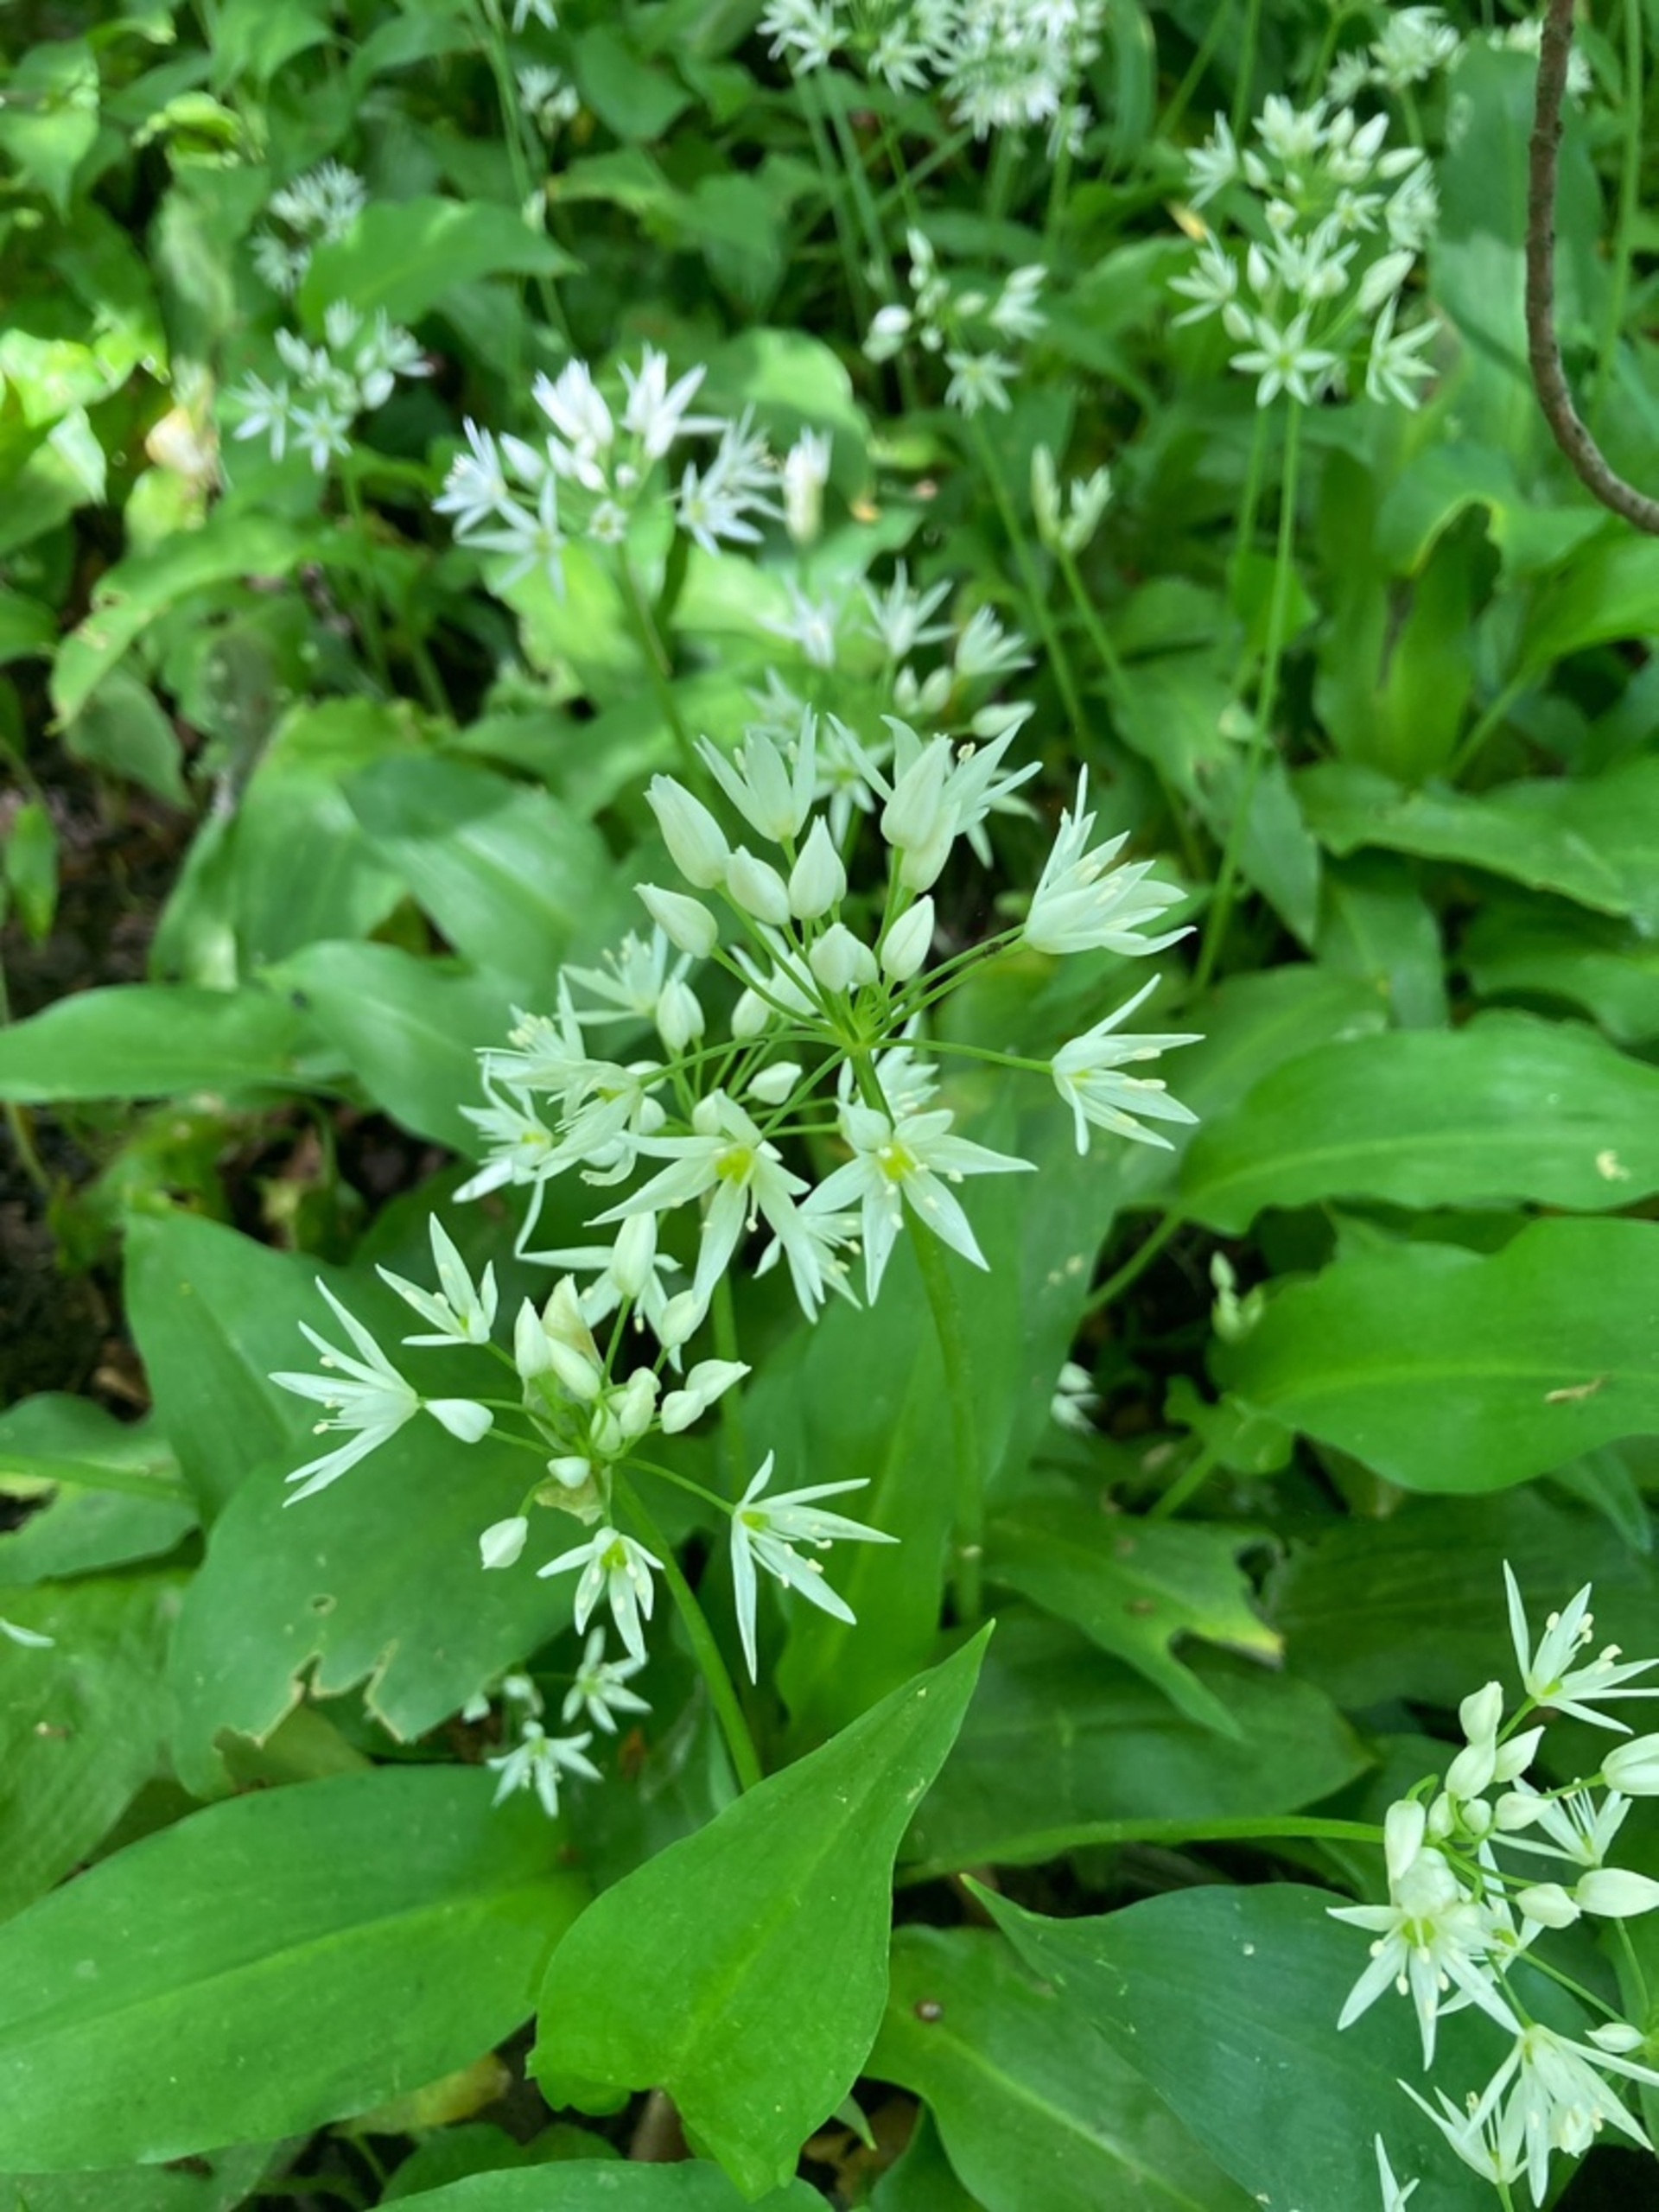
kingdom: Plantae
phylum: Tracheophyta
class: Liliopsida
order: Asparagales
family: Amaryllidaceae
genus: Allium
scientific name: Allium ursinum
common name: Rams-løg
